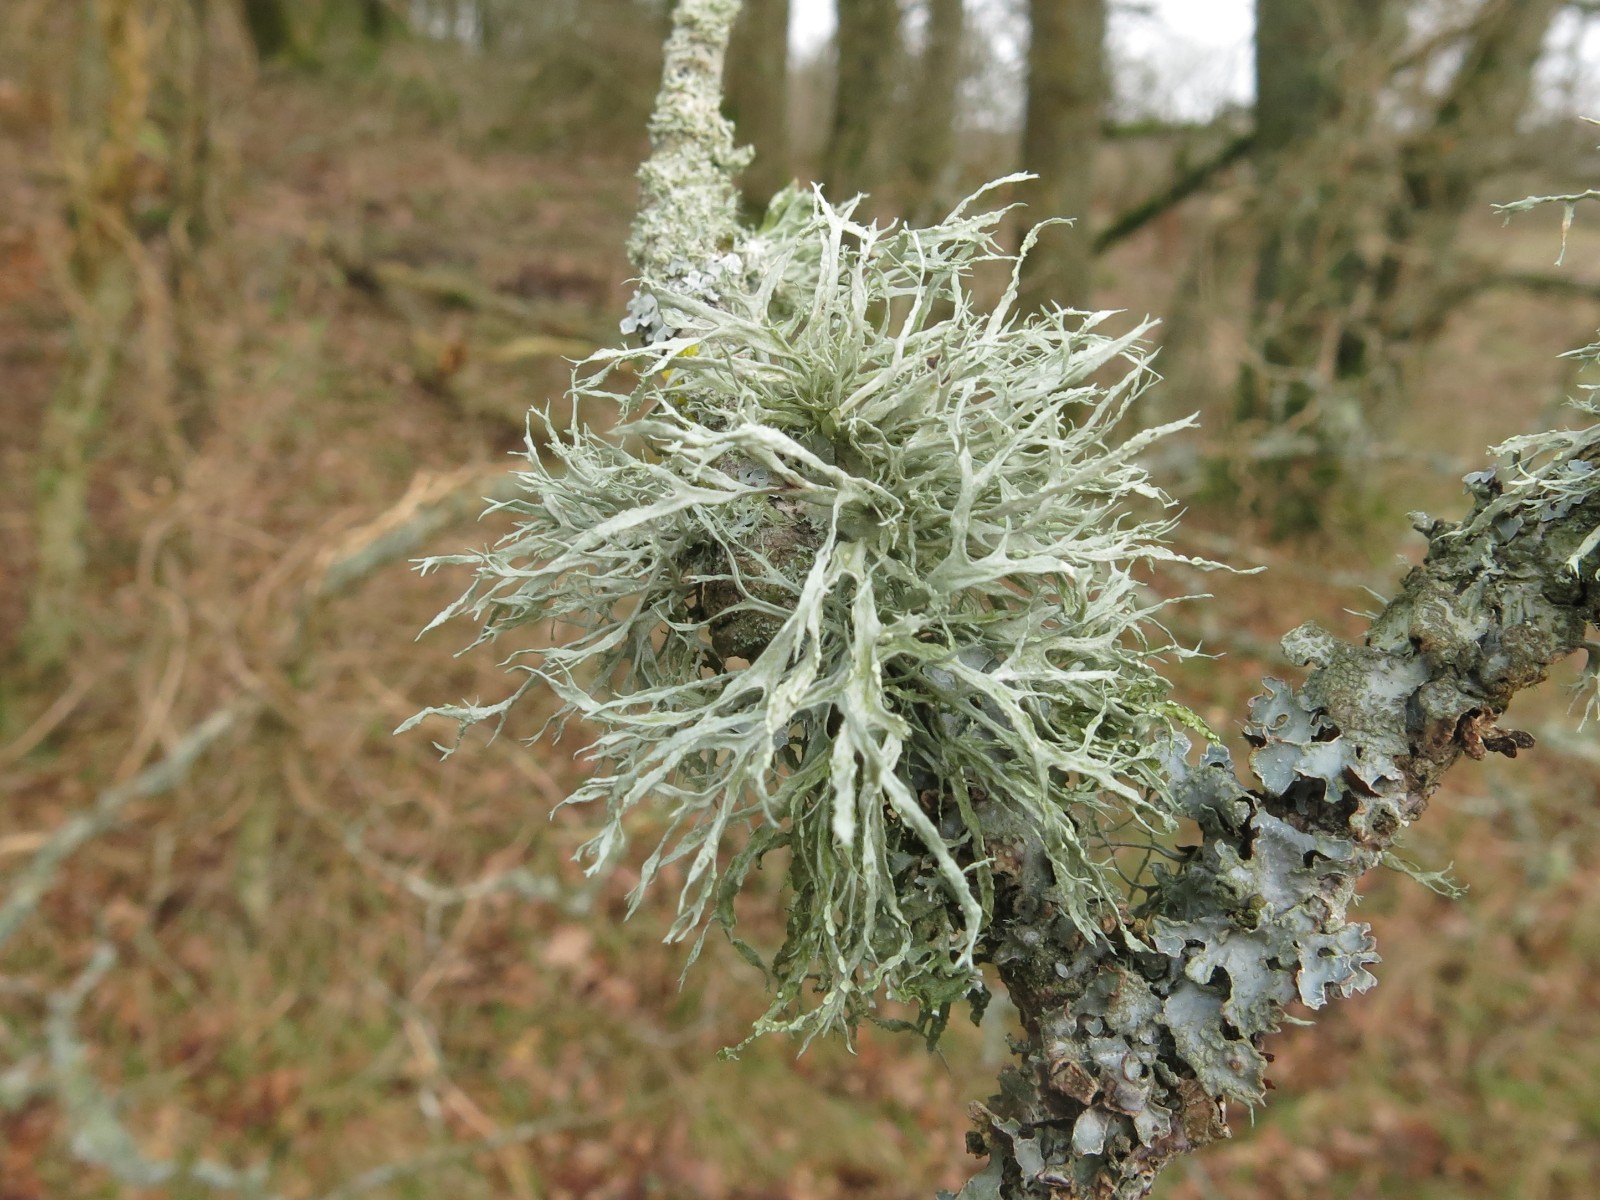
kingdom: Fungi
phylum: Ascomycota
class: Lecanoromycetes
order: Lecanorales
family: Ramalinaceae
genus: Ramalina
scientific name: Ramalina farinacea
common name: melet grenlav
